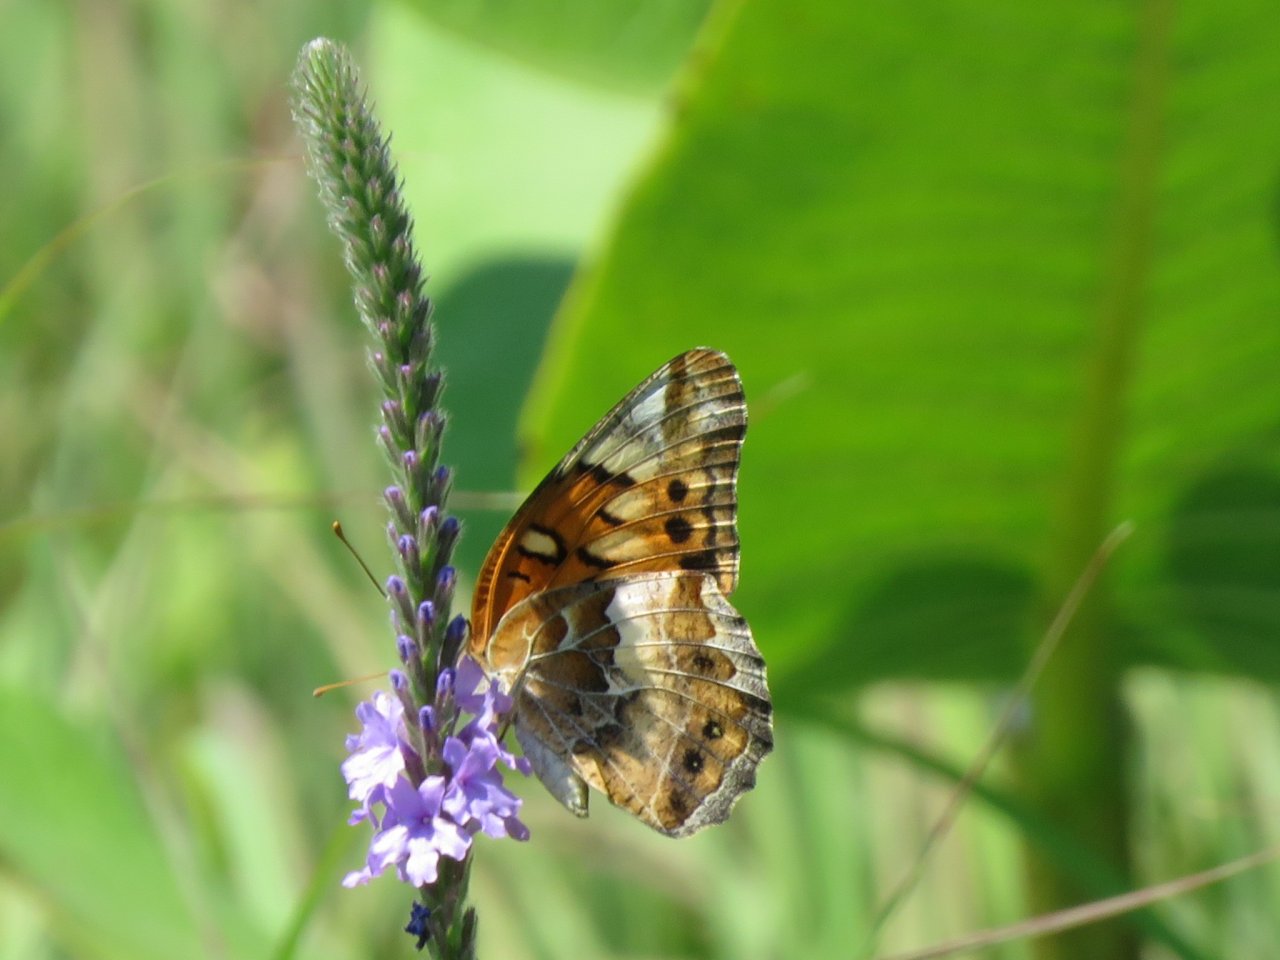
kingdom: Animalia
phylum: Arthropoda
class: Insecta
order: Lepidoptera
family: Nymphalidae
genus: Euptoieta
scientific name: Euptoieta claudia
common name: Variegated Fritillary
